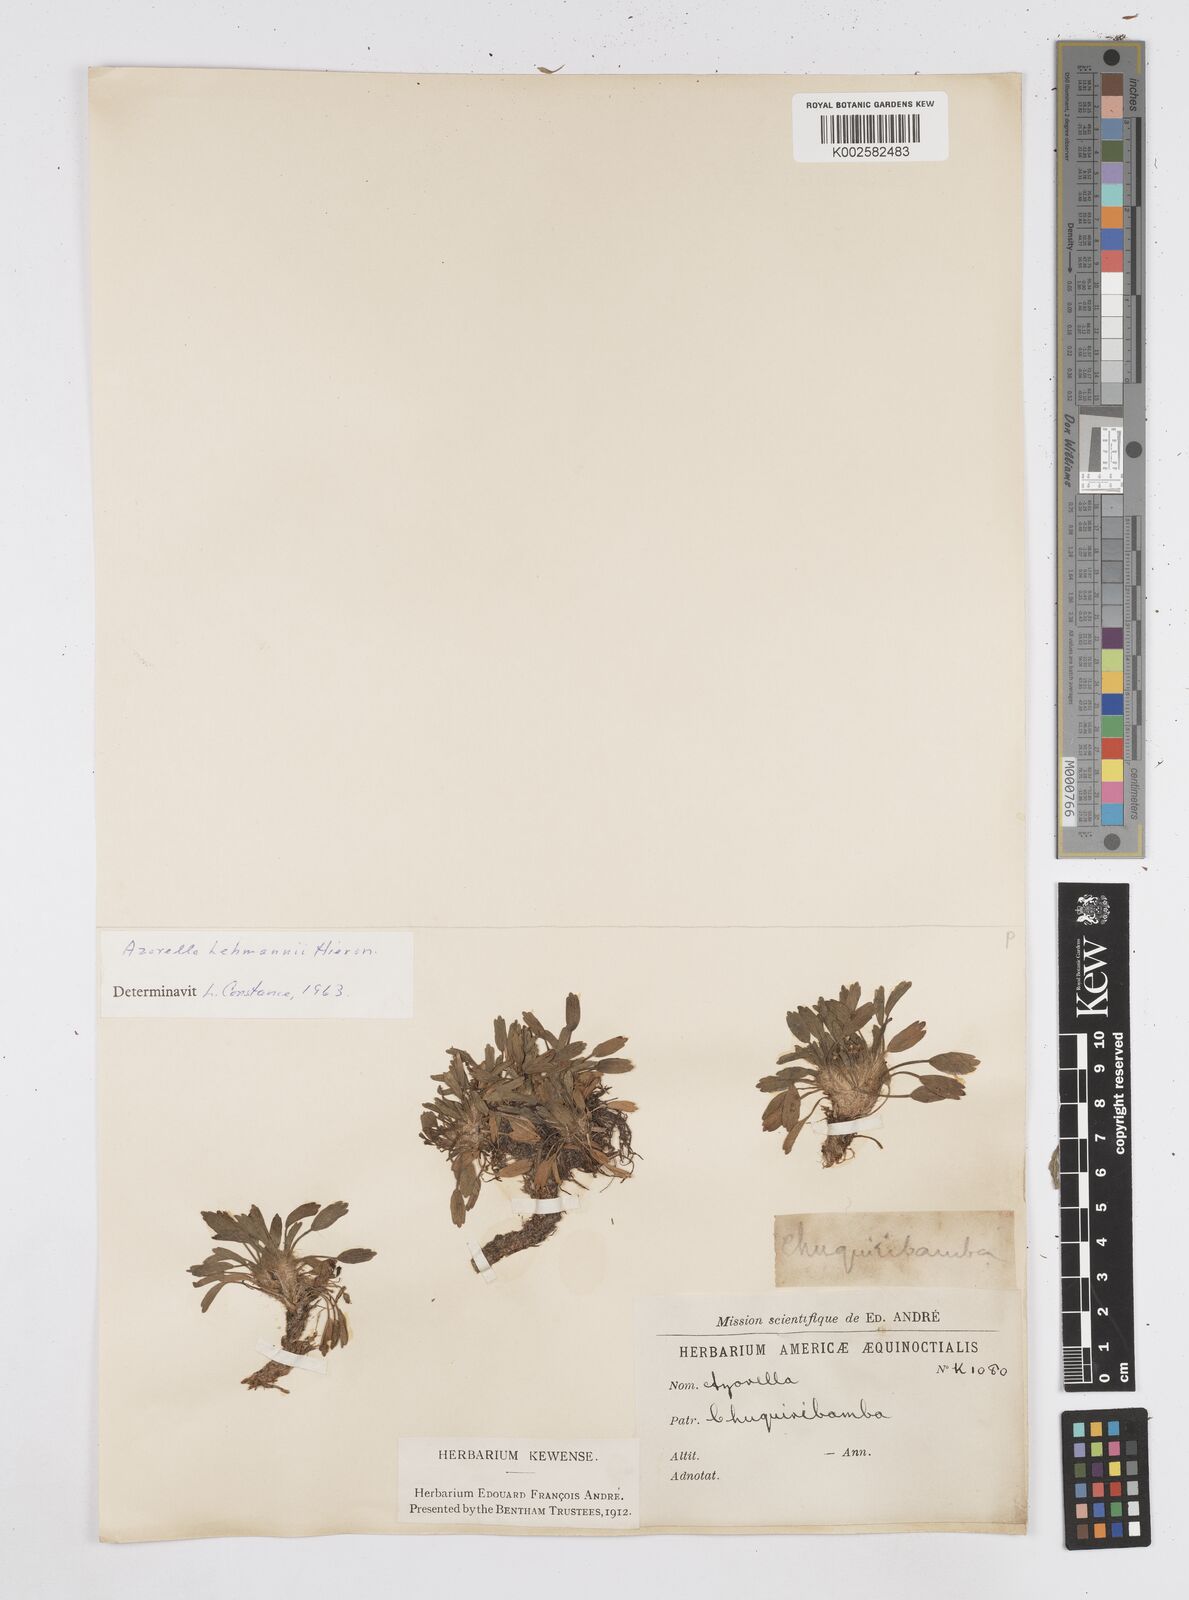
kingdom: Plantae
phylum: Tracheophyta
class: Magnoliopsida
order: Apiales
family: Apiaceae
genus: Azorella
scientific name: Azorella biloba
